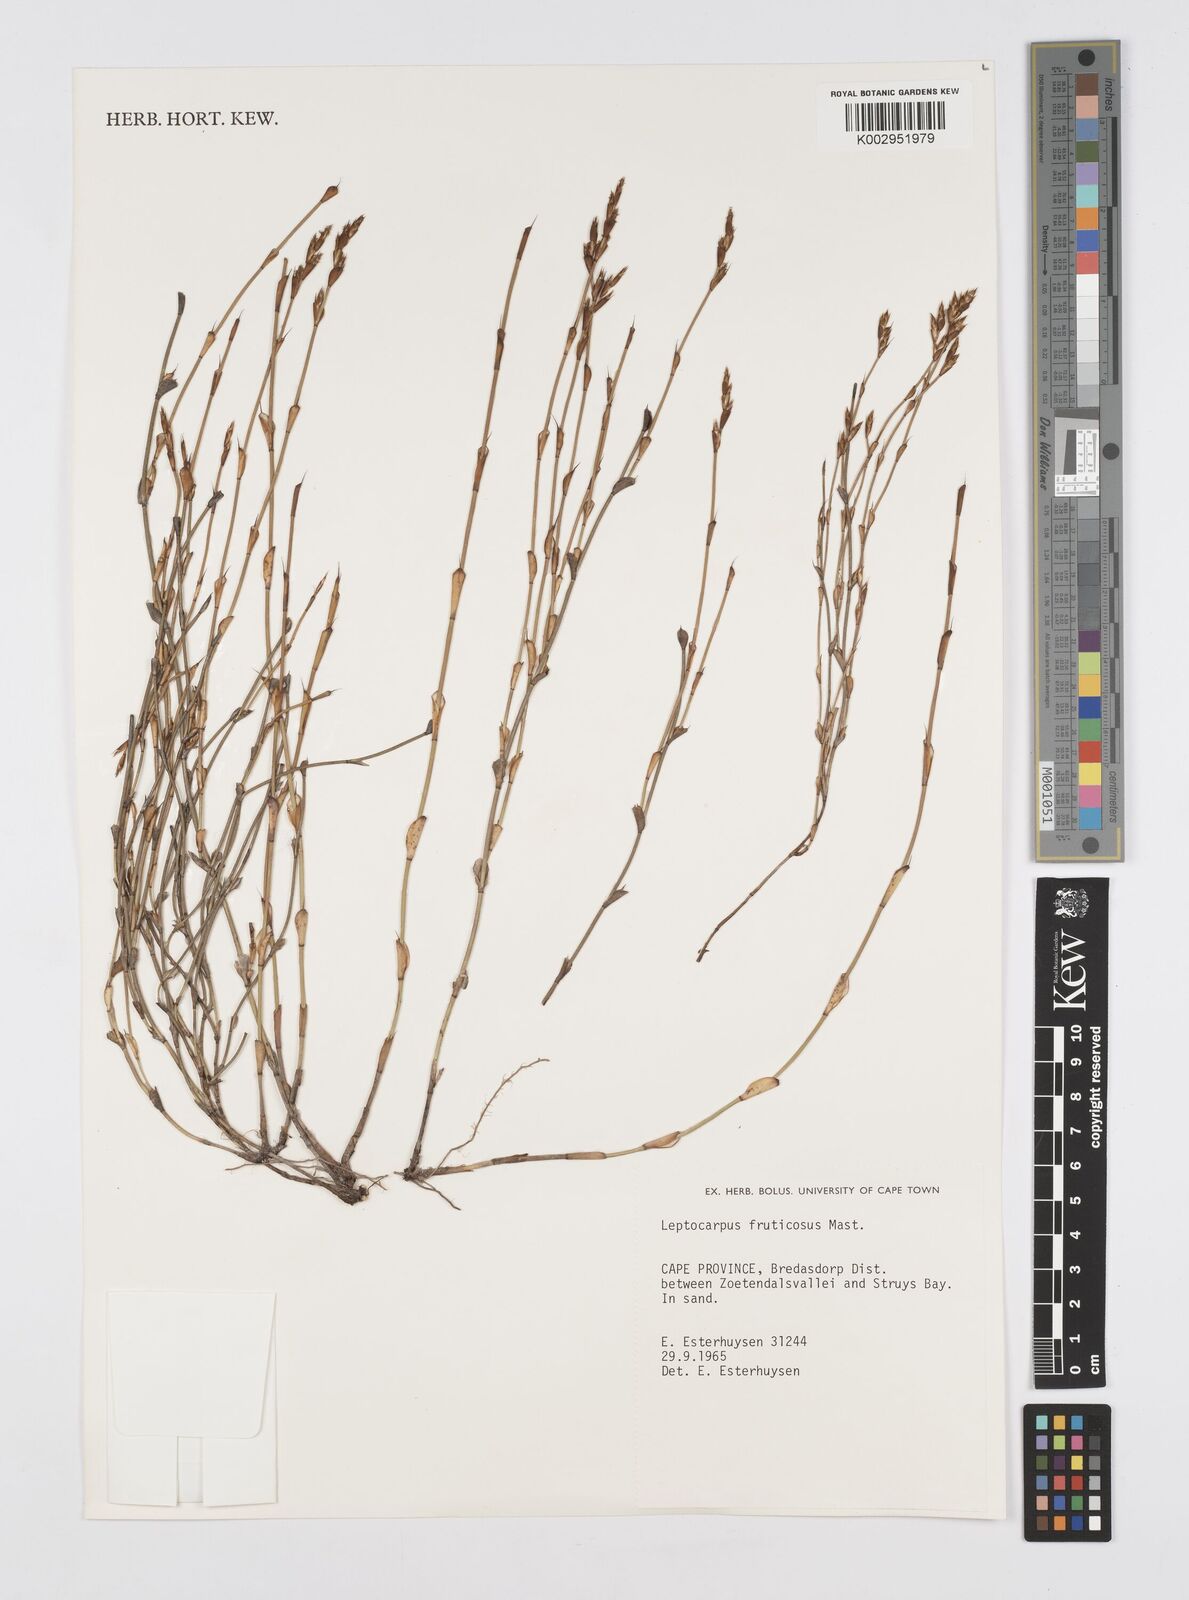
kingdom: Plantae
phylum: Tracheophyta
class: Liliopsida
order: Poales
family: Restionaceae
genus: Rhodocoma
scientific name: Rhodocoma fruticosa
